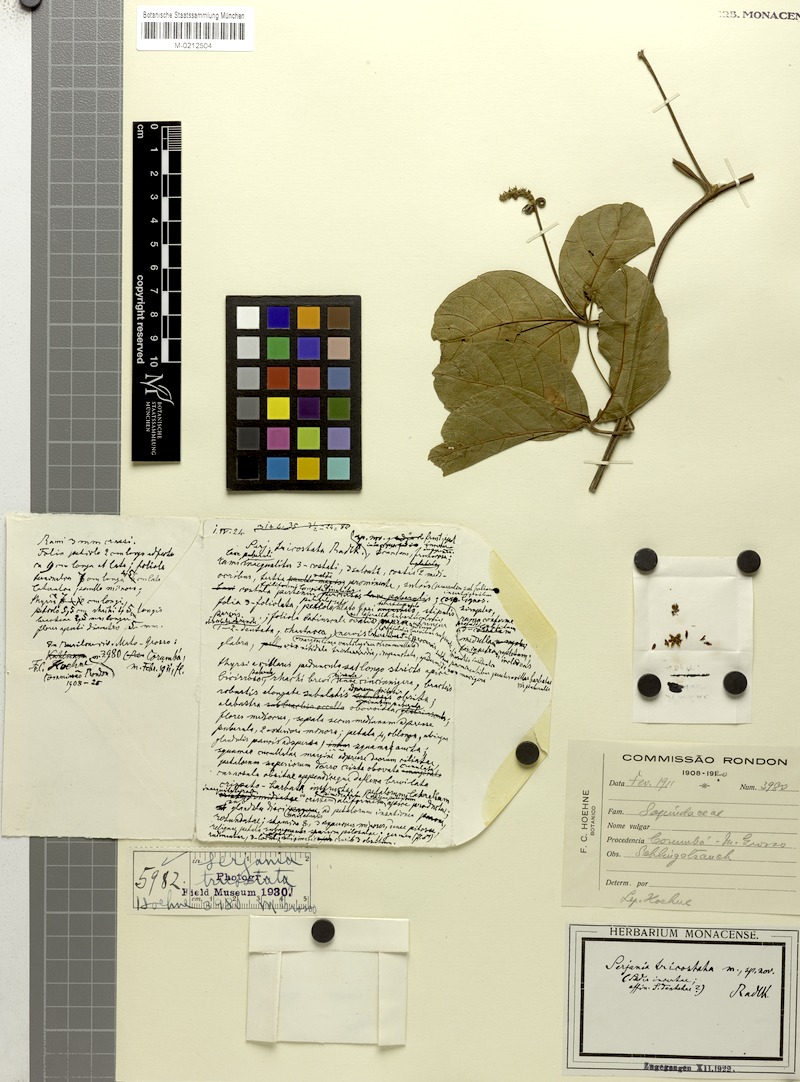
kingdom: Plantae
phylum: Tracheophyta
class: Magnoliopsida
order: Sapindales
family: Sapindaceae
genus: Serjania
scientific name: Serjania tricostata
